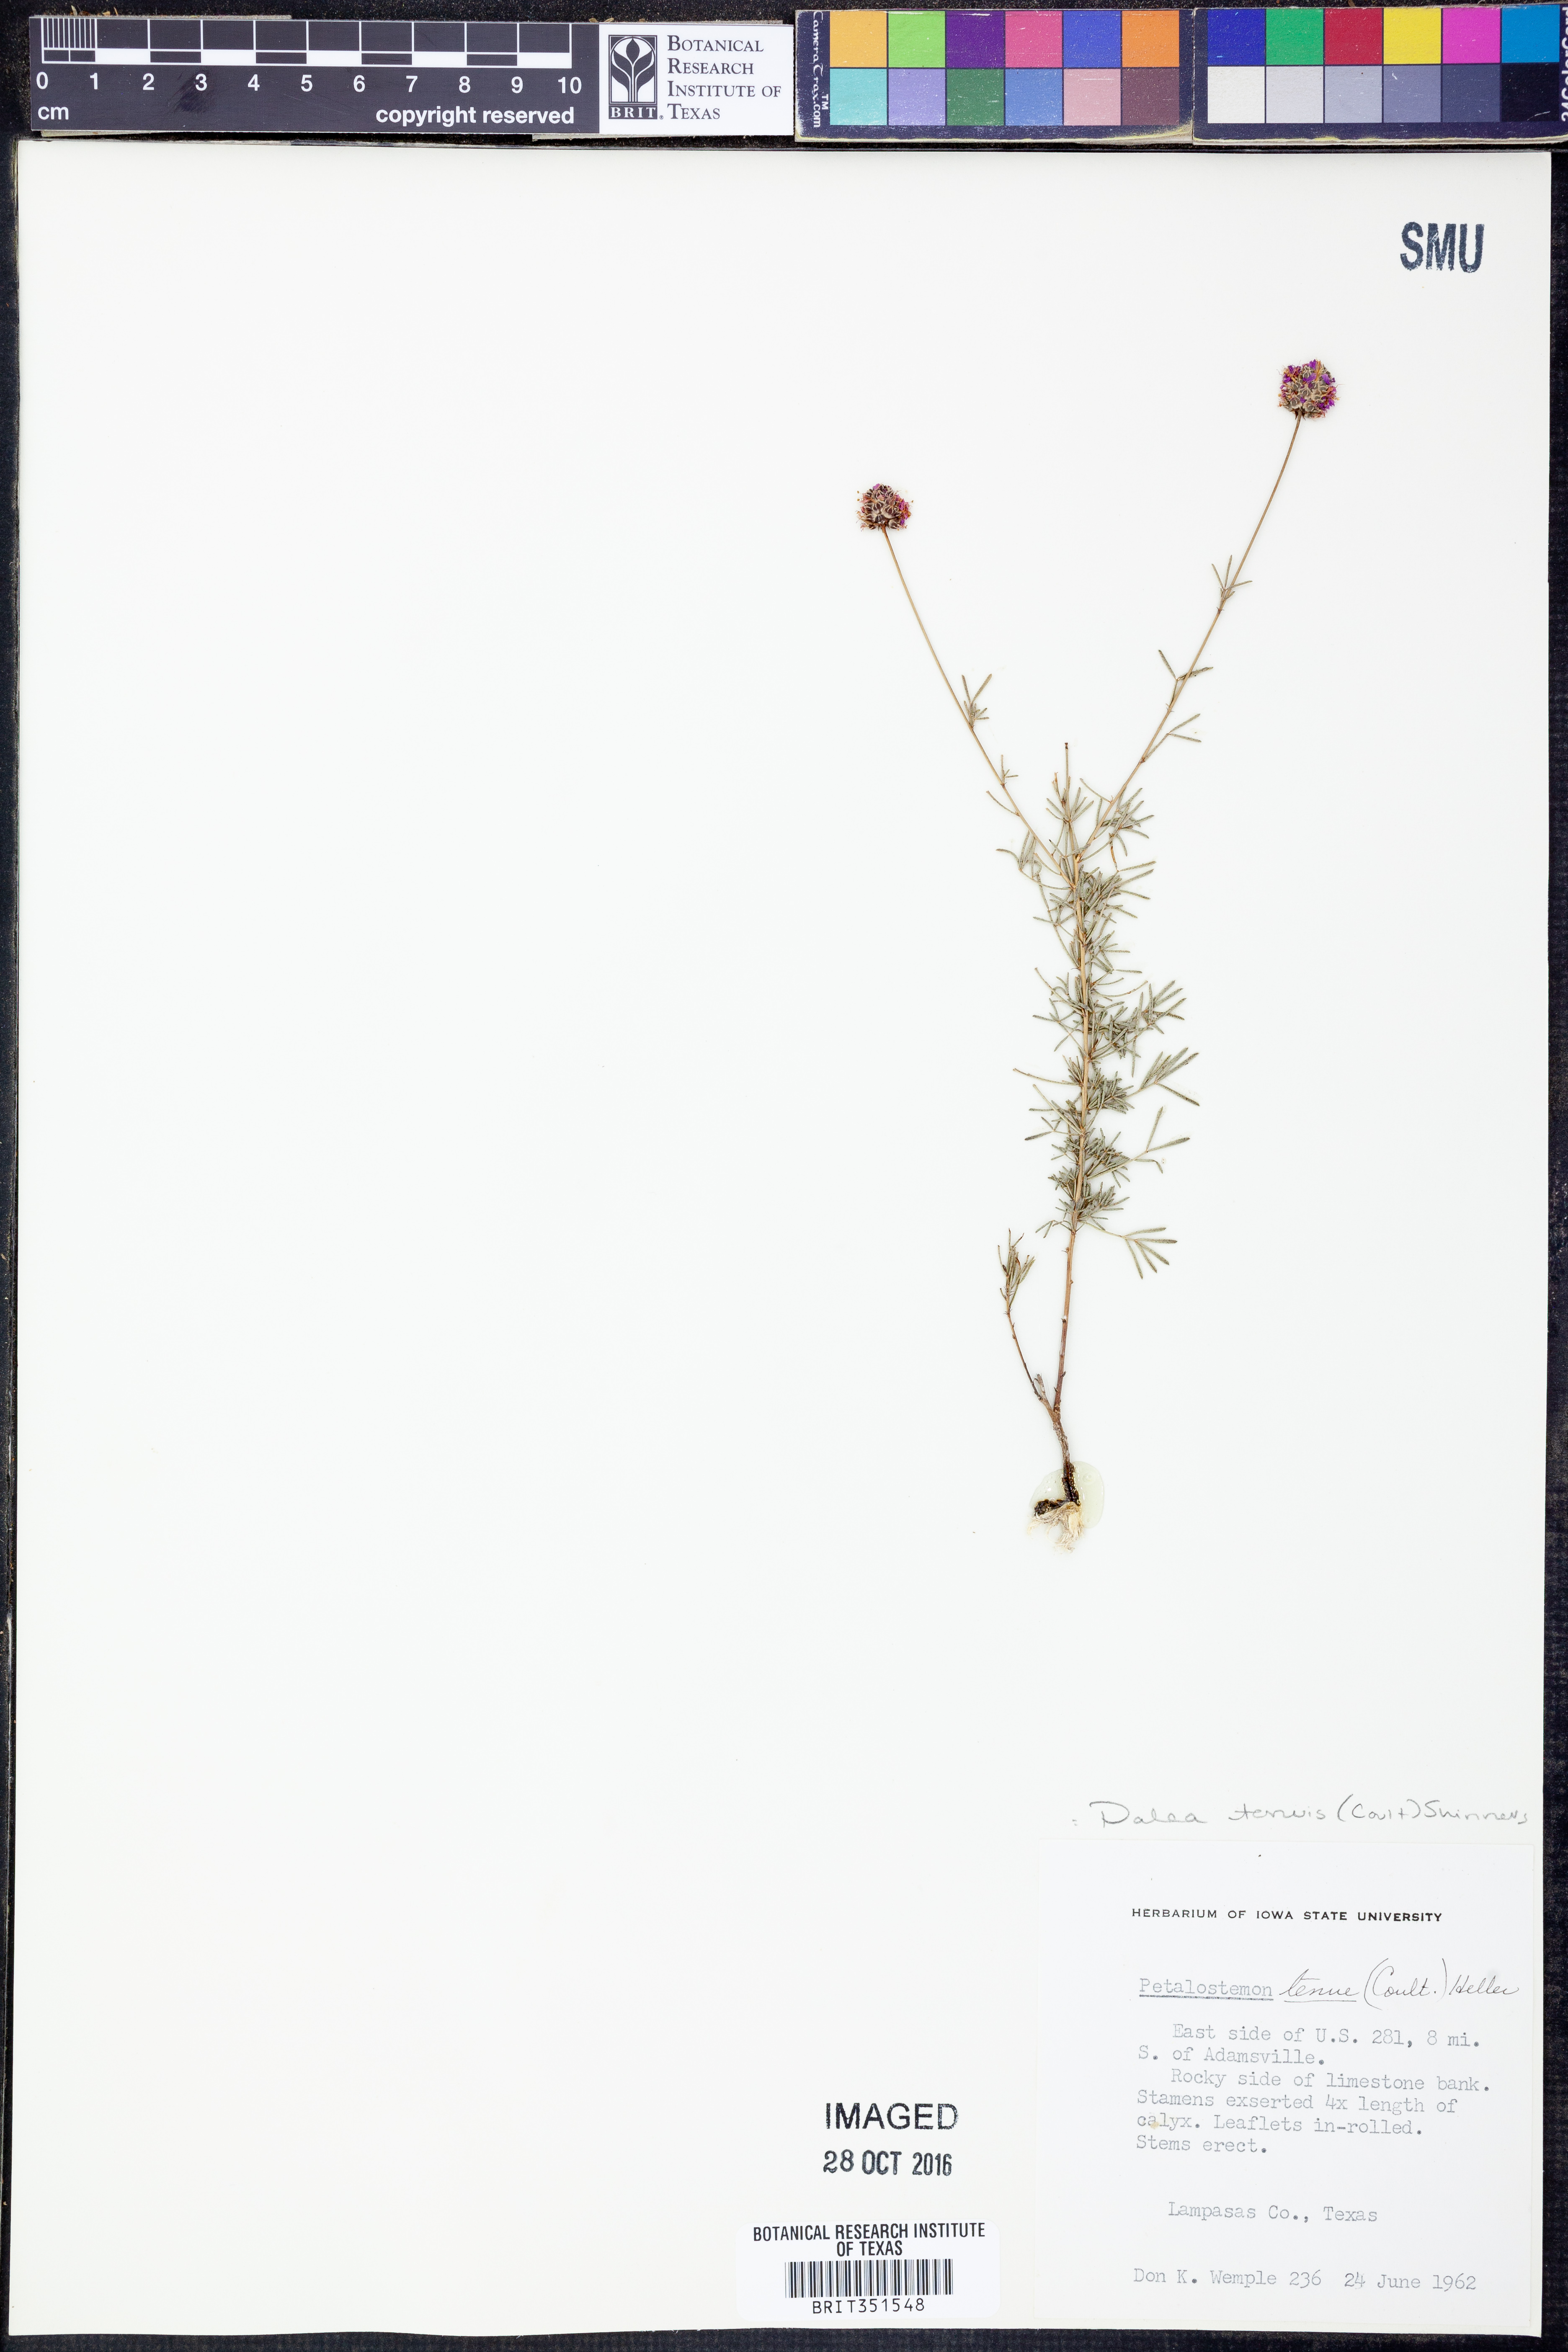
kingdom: Plantae
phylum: Tracheophyta
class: Magnoliopsida
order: Fabales
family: Fabaceae
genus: Dalea
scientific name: Dalea tenuis
